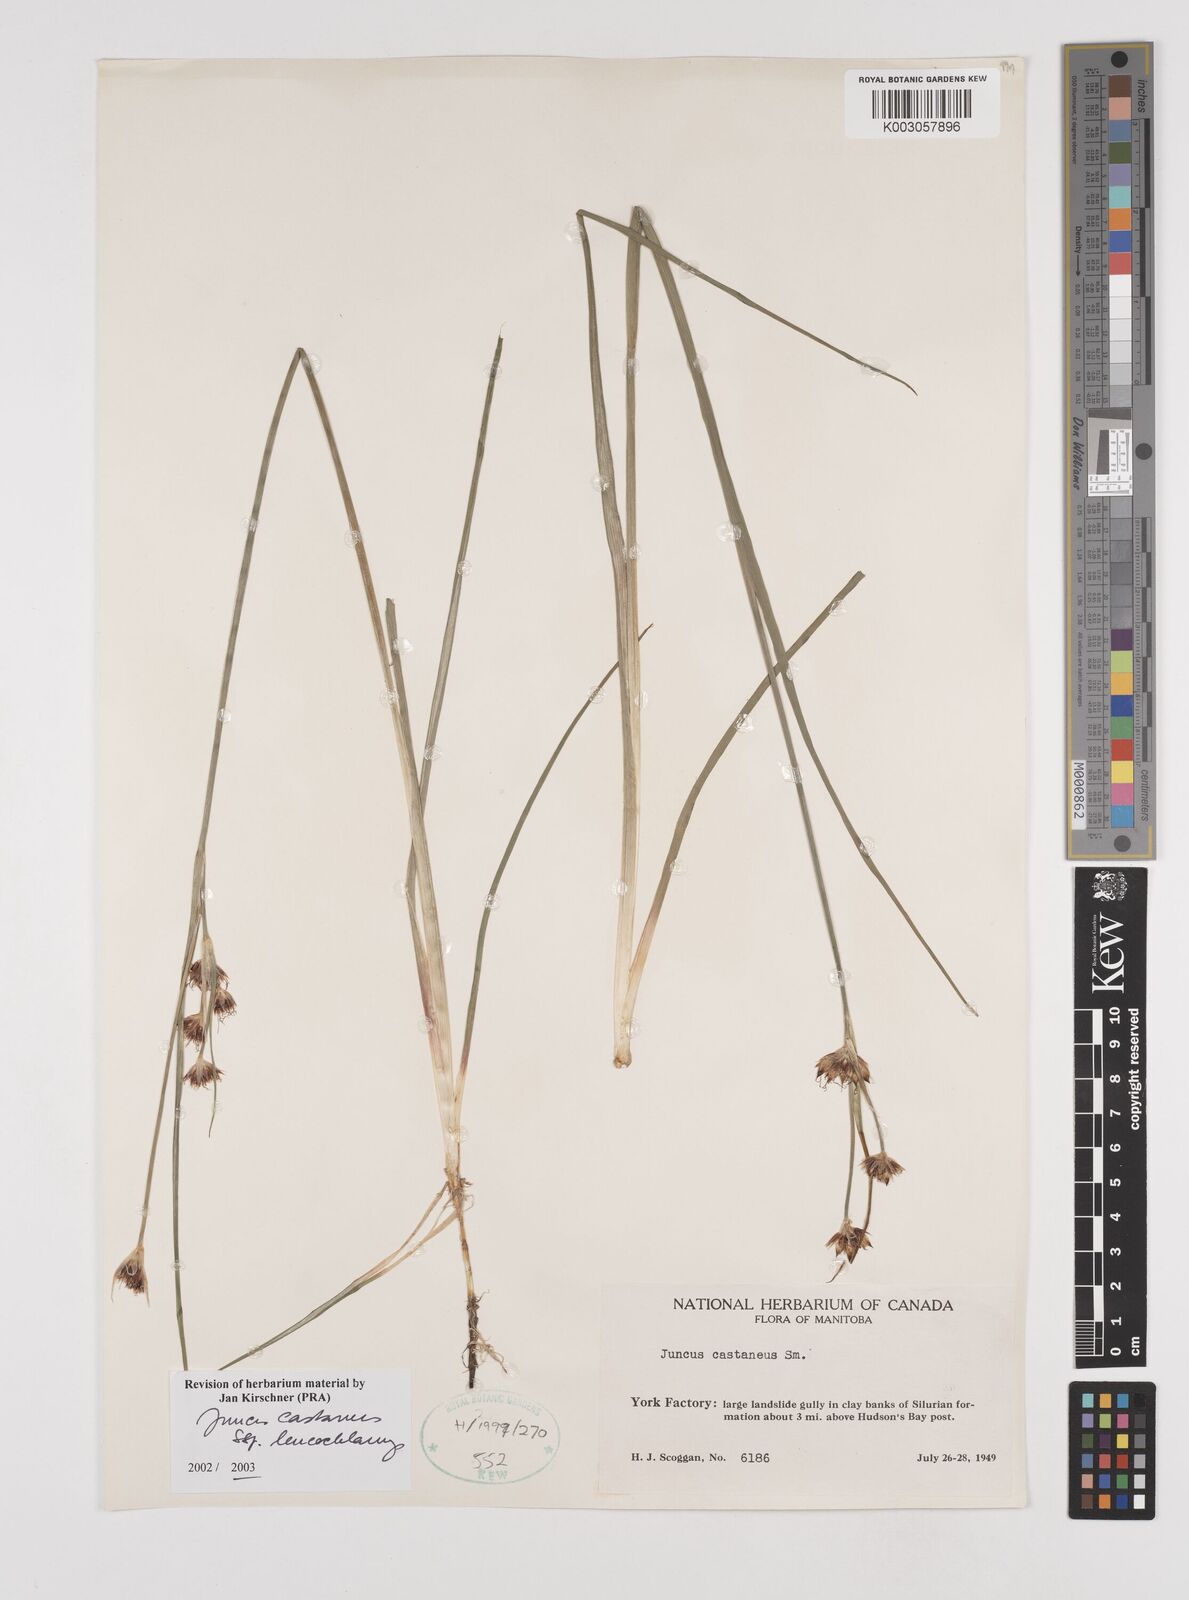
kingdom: Plantae
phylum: Tracheophyta
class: Liliopsida
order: Poales
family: Juncaceae
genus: Juncus
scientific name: Juncus castaneus
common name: Chestnut rush
